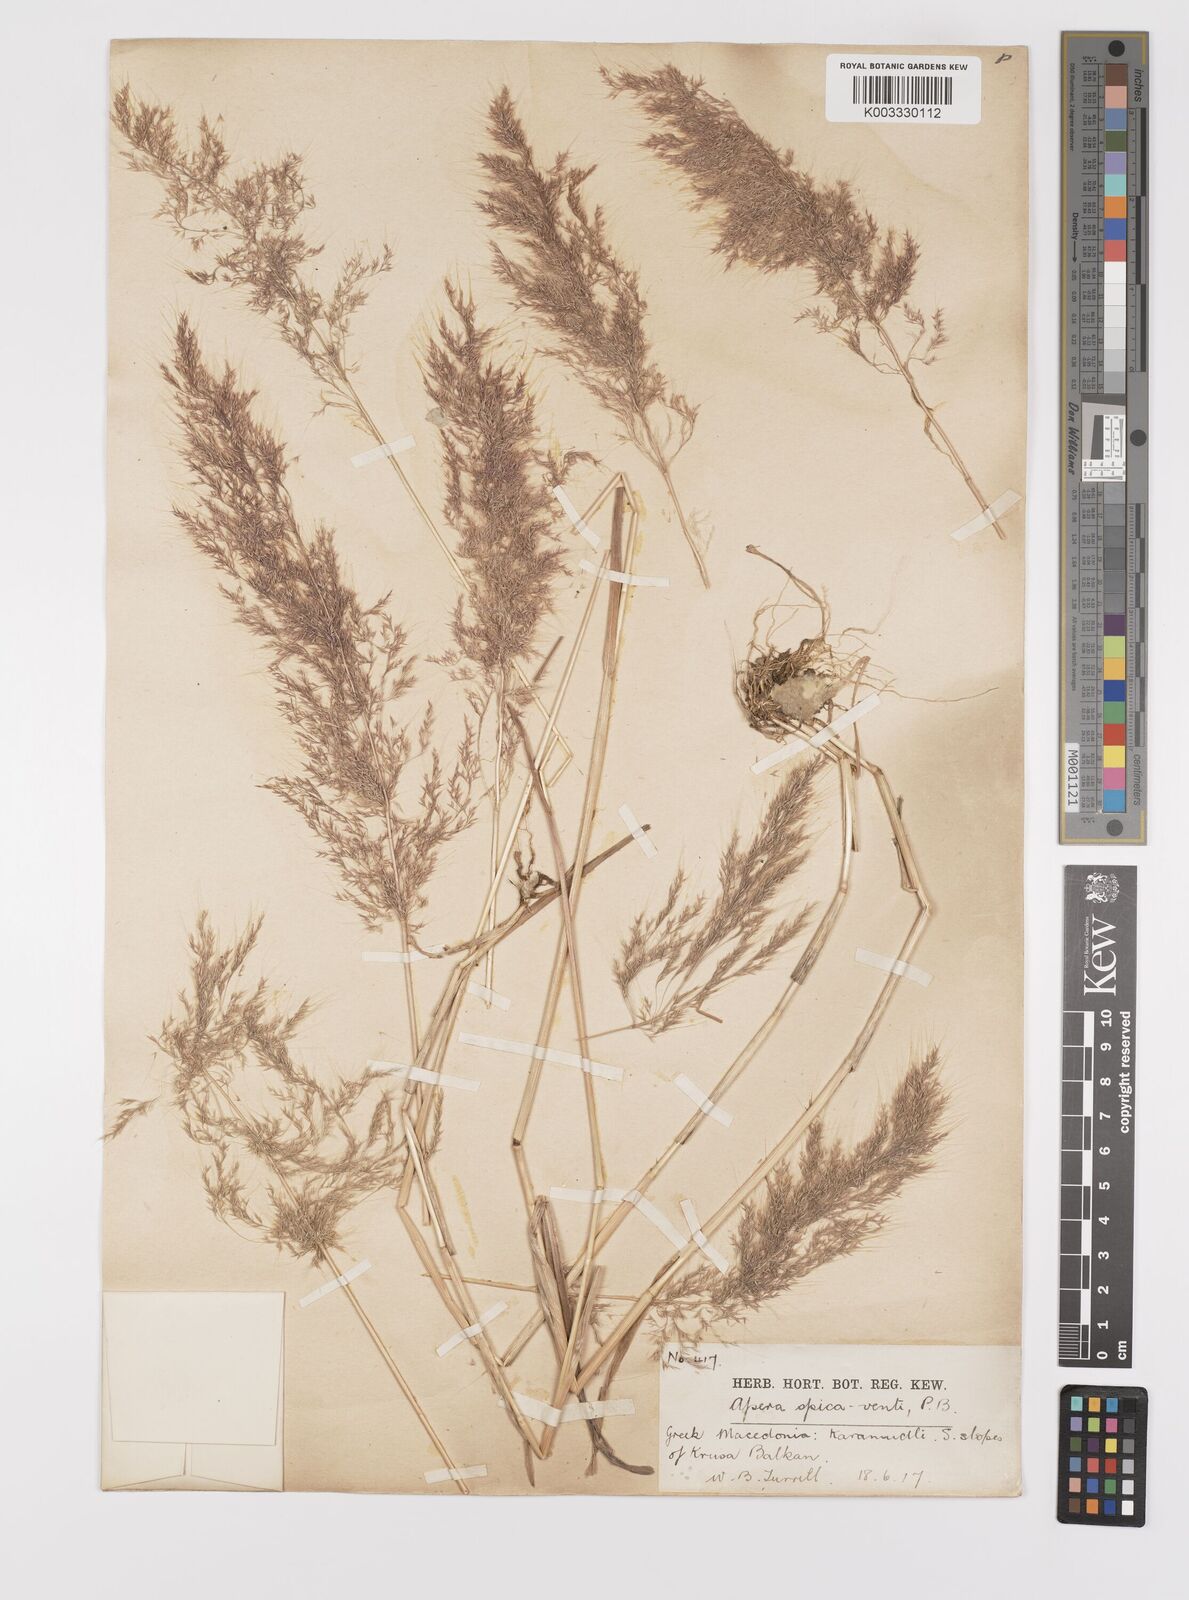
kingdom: Plantae
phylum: Tracheophyta
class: Liliopsida
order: Poales
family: Poaceae
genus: Apera
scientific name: Apera spica-venti
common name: Loose silky-bent
